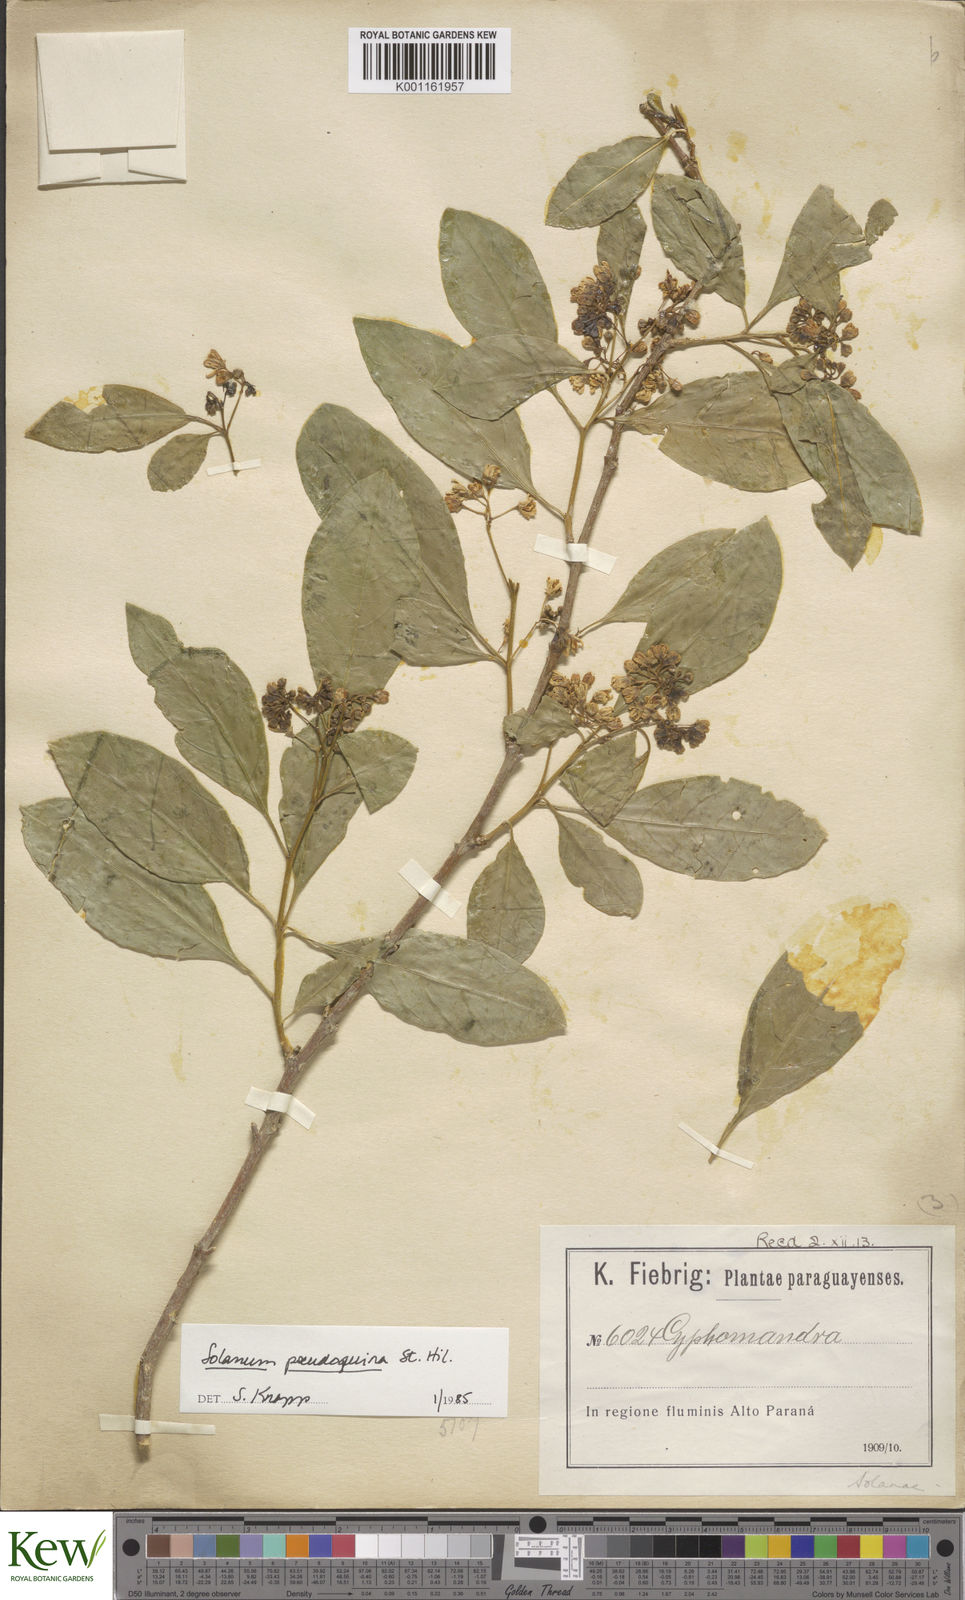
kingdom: Plantae
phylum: Tracheophyta
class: Magnoliopsida
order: Solanales
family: Solanaceae
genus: Solanum
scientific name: Solanum pseudoquina
